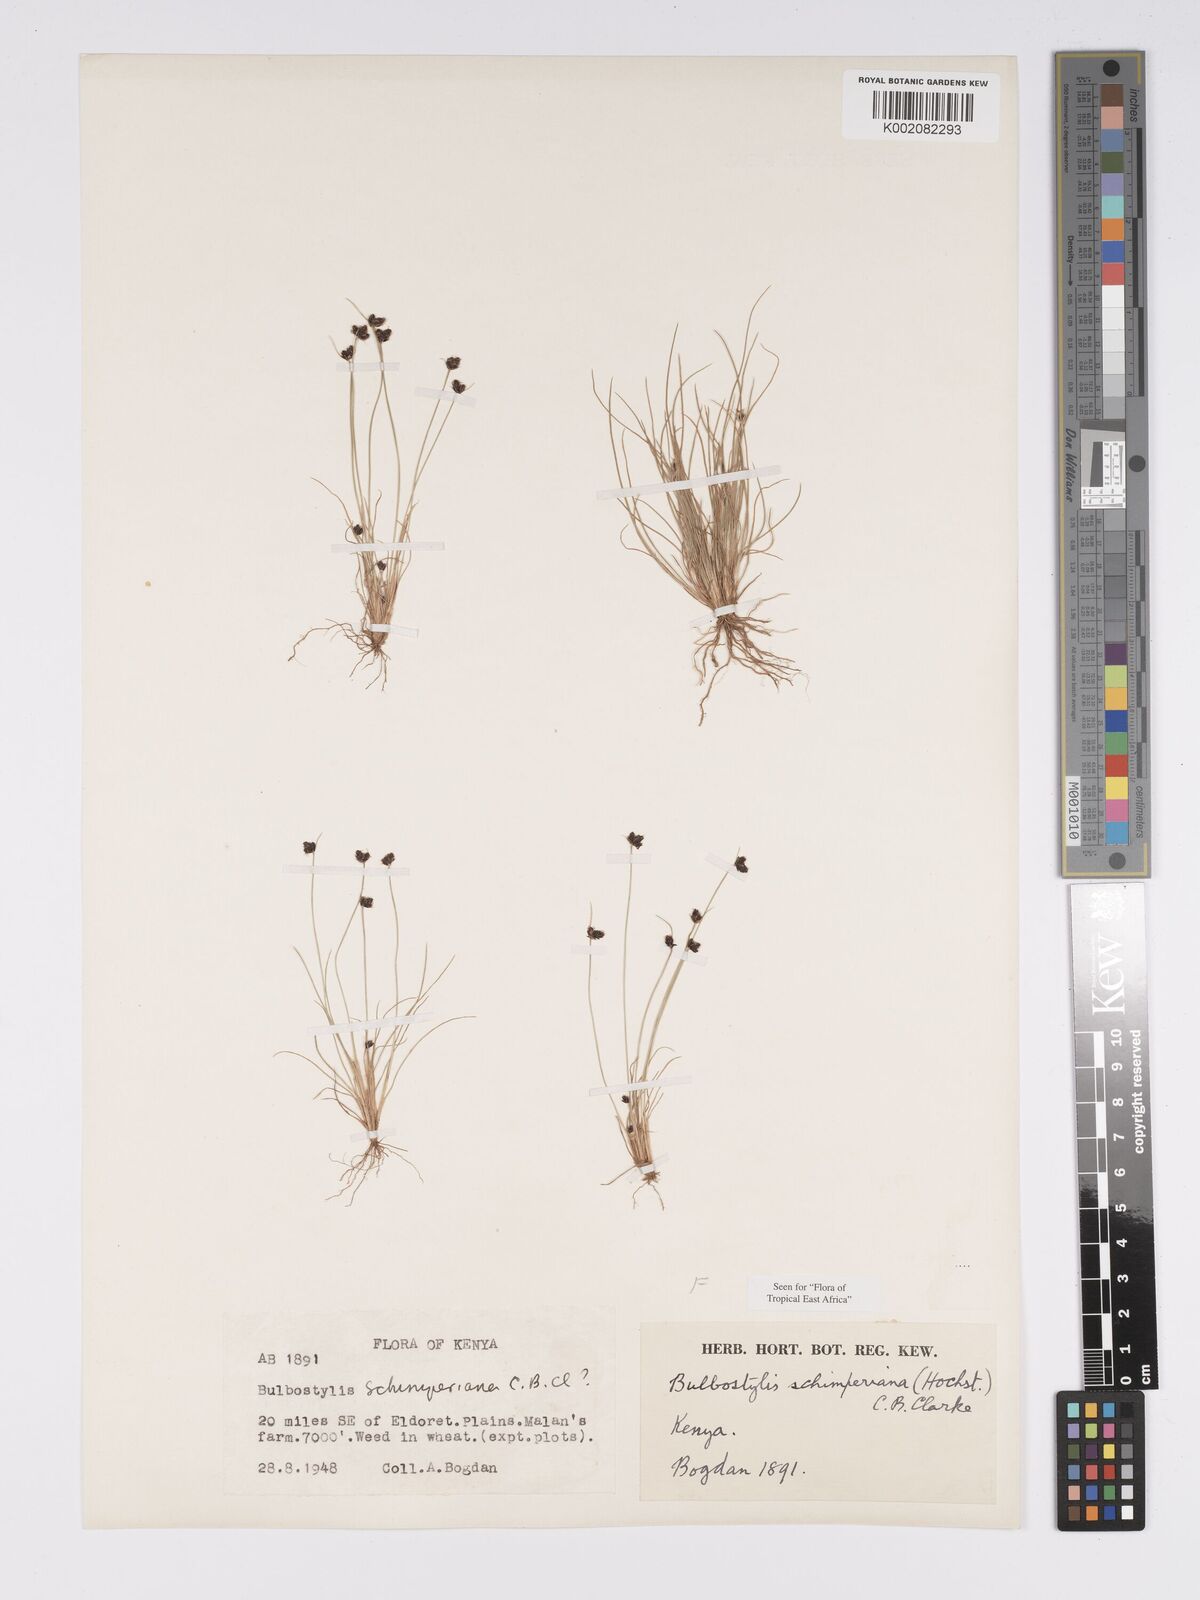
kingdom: Plantae
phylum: Tracheophyta
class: Liliopsida
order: Poales
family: Cyperaceae
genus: Bulbostylis
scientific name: Bulbostylis schimperiana
